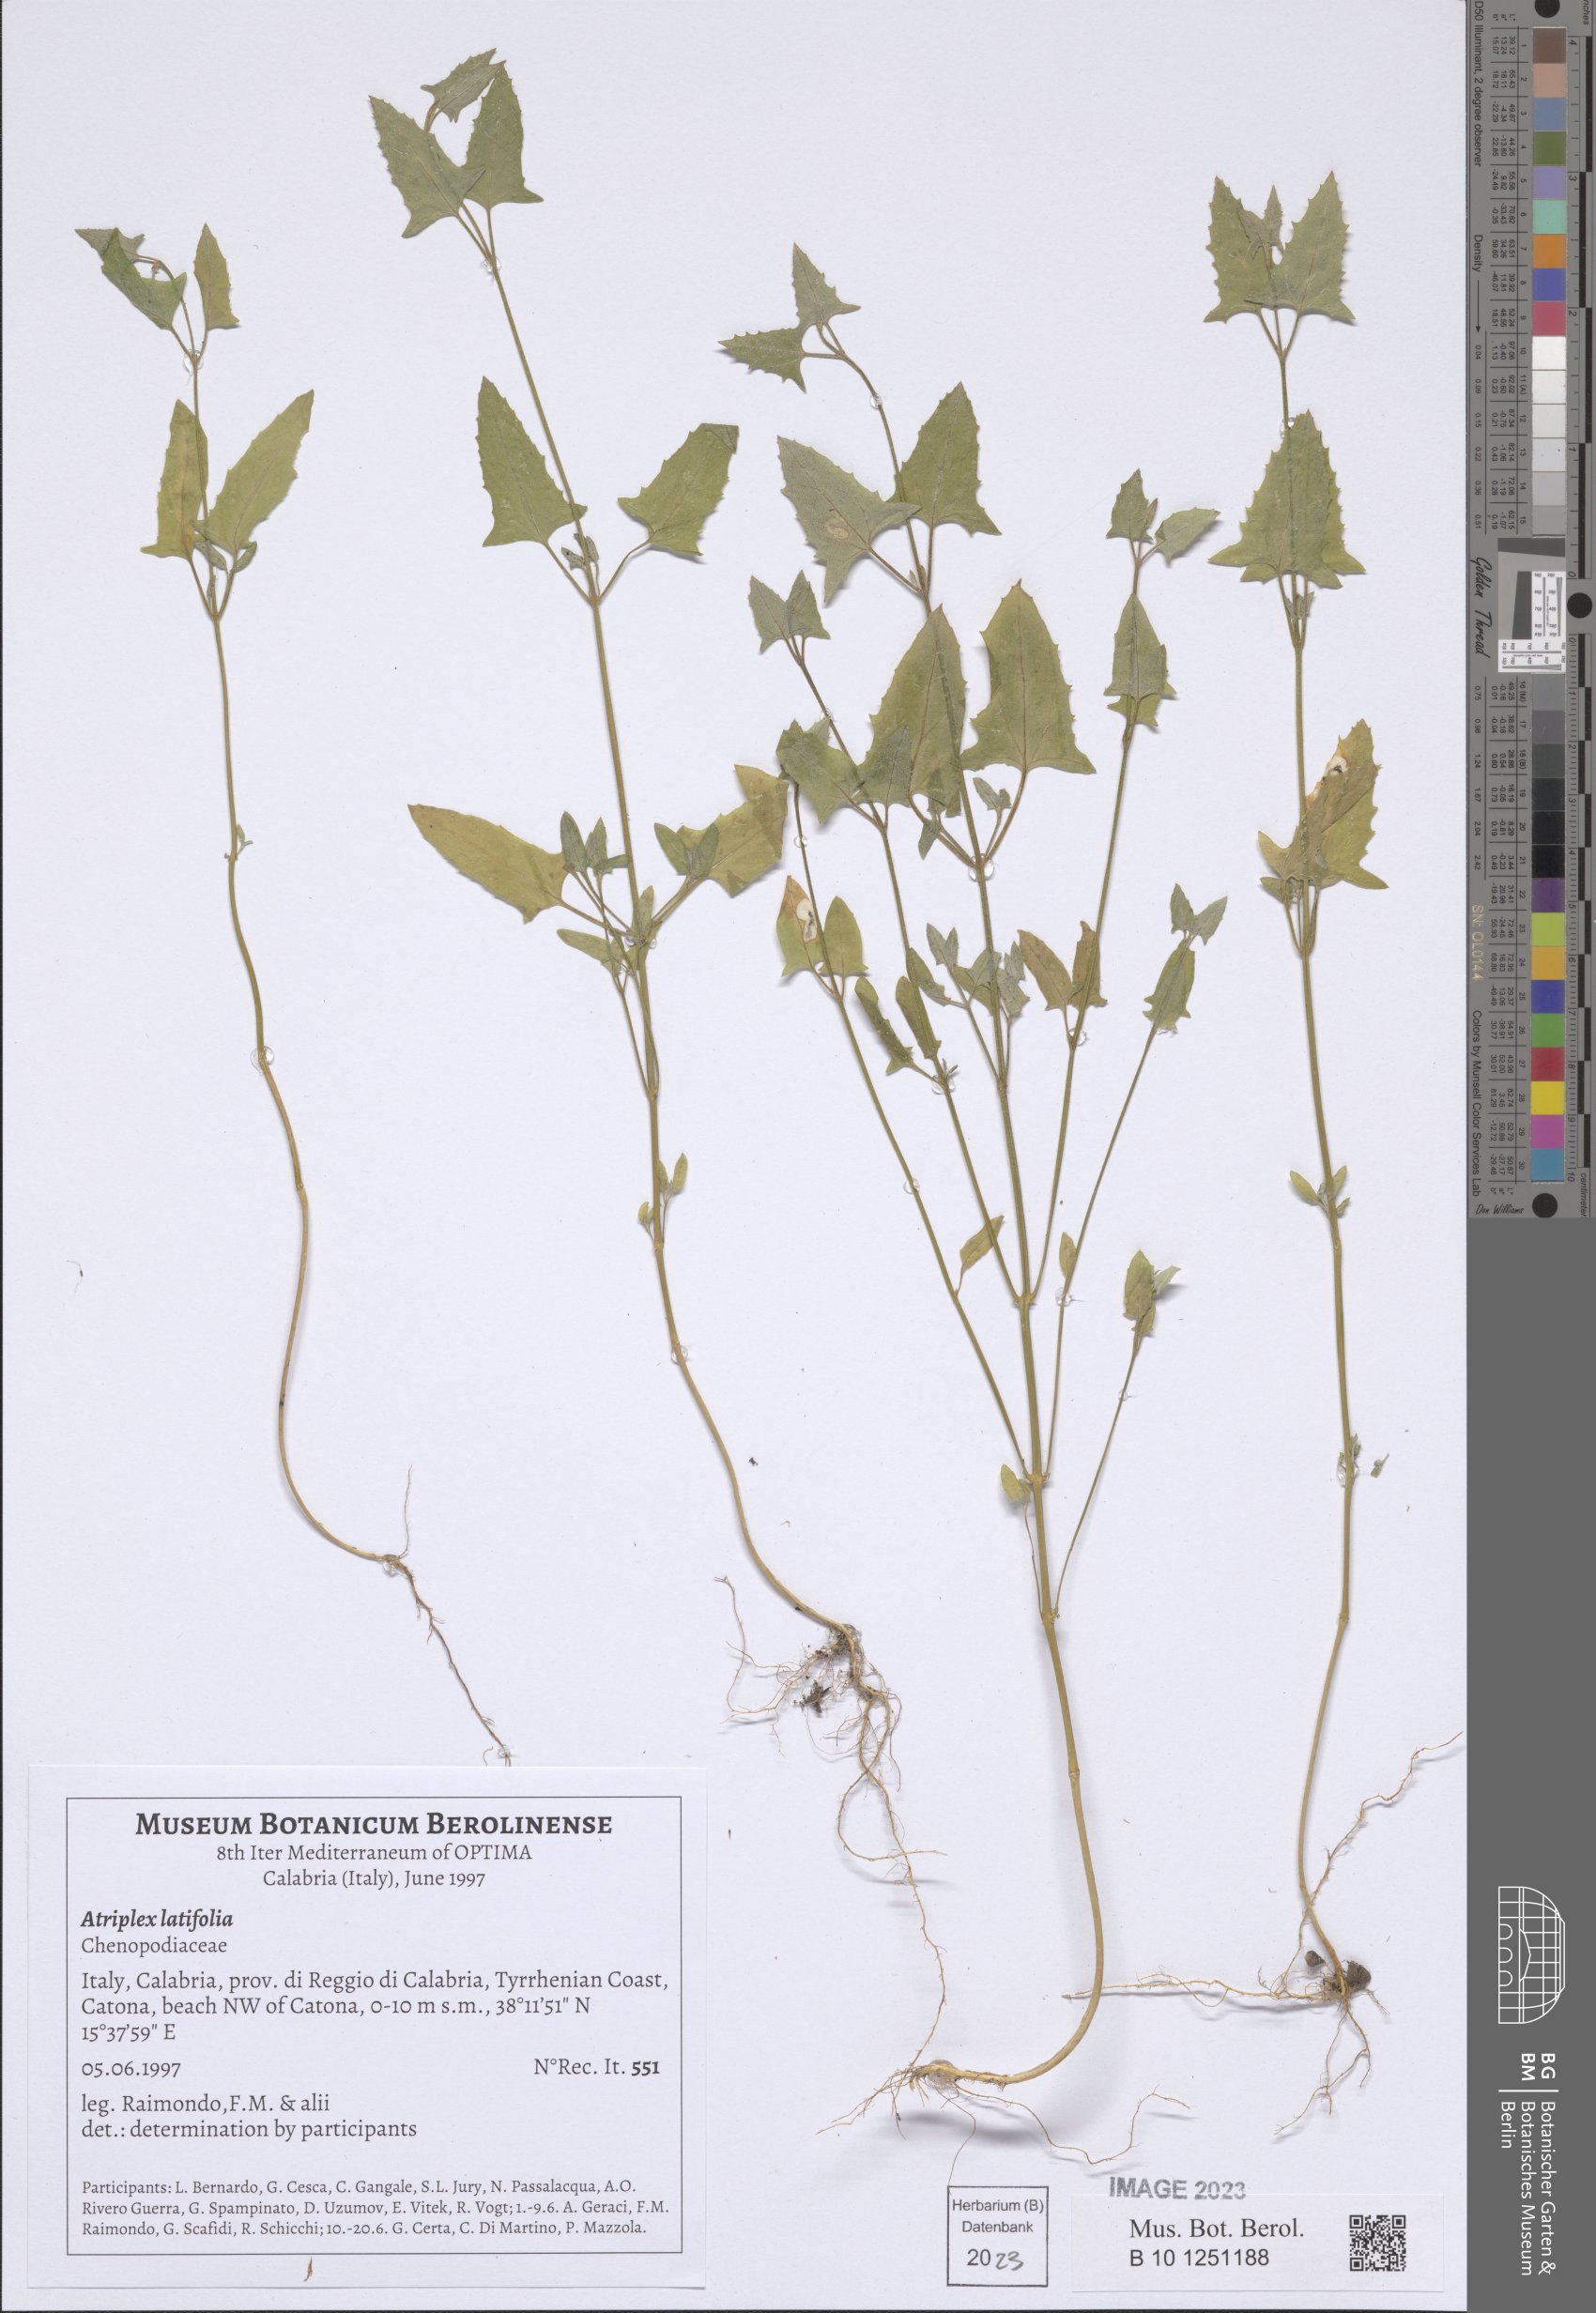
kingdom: Plantae
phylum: Tracheophyta
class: Magnoliopsida
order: Caryophyllales
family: Amaranthaceae
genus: Atriplex
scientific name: Atriplex prostrata
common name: Spear-leaved orache
